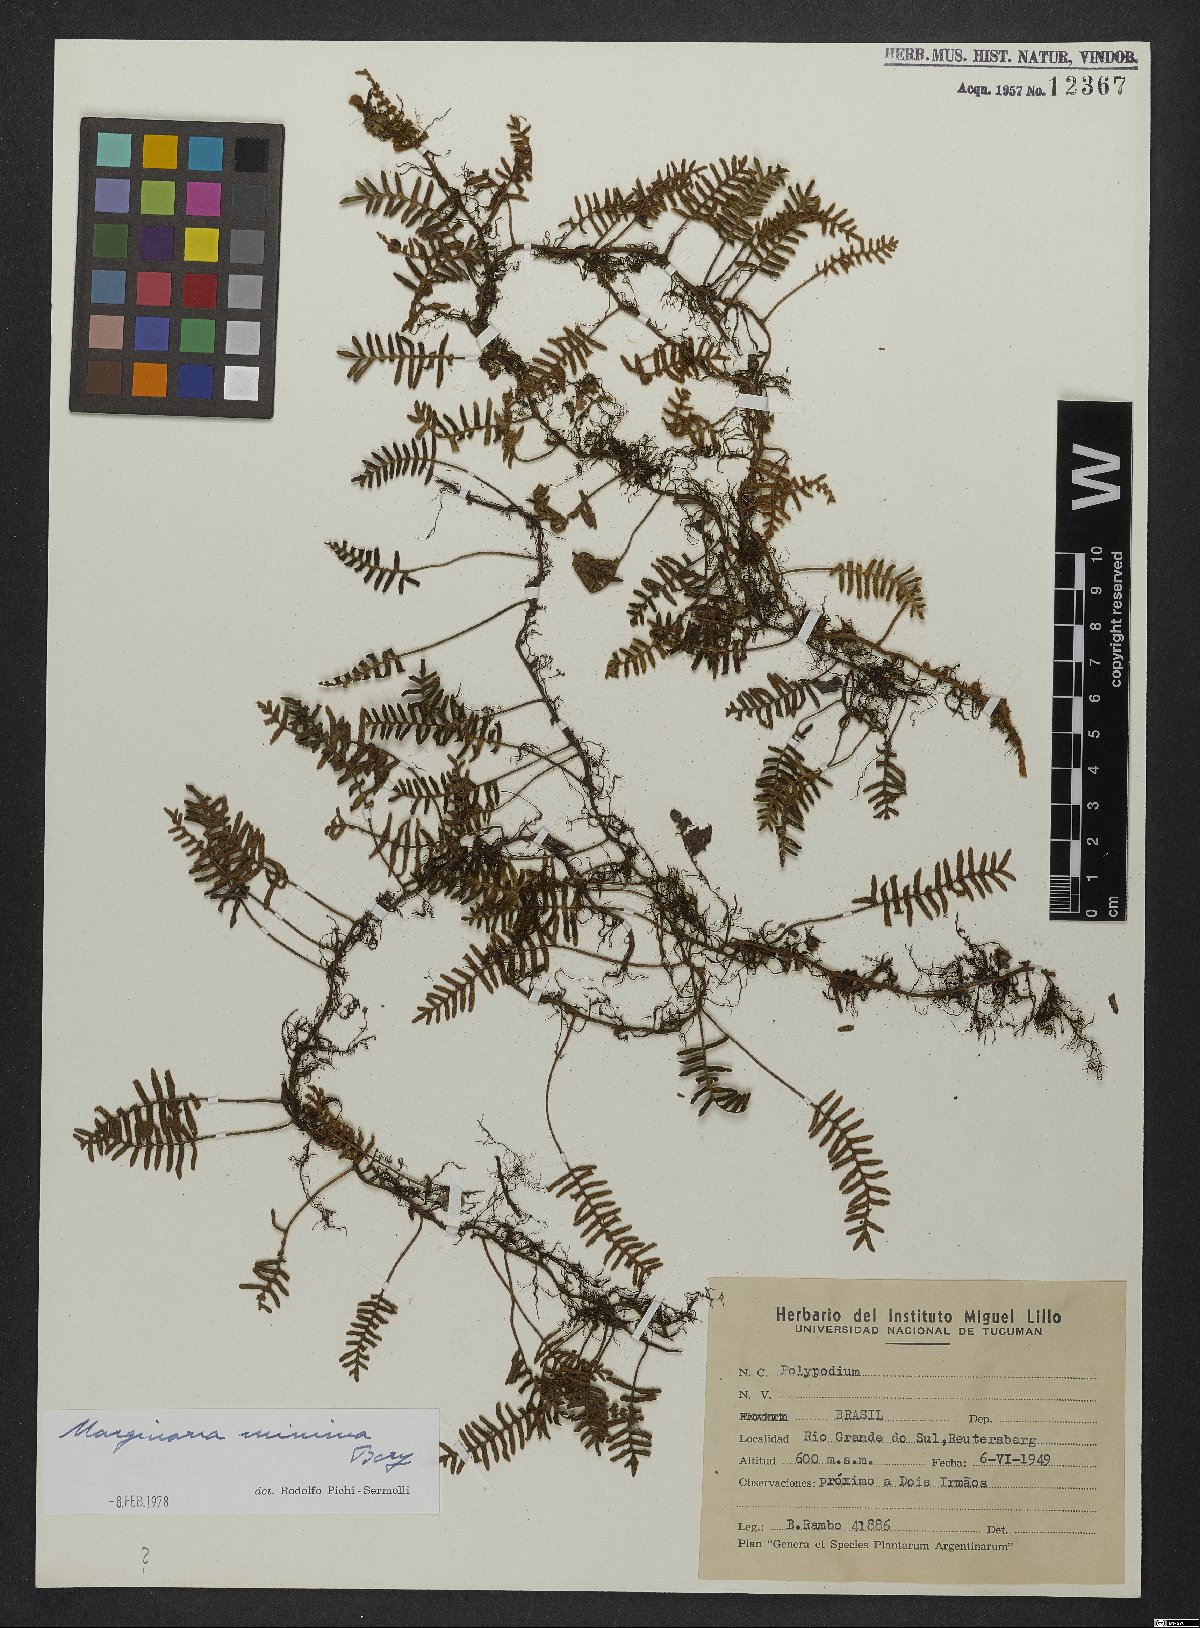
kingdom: Plantae
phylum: Tracheophyta
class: Polypodiopsida
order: Polypodiales
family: Polypodiaceae
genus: Pleopeltis
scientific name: Pleopeltis minima
